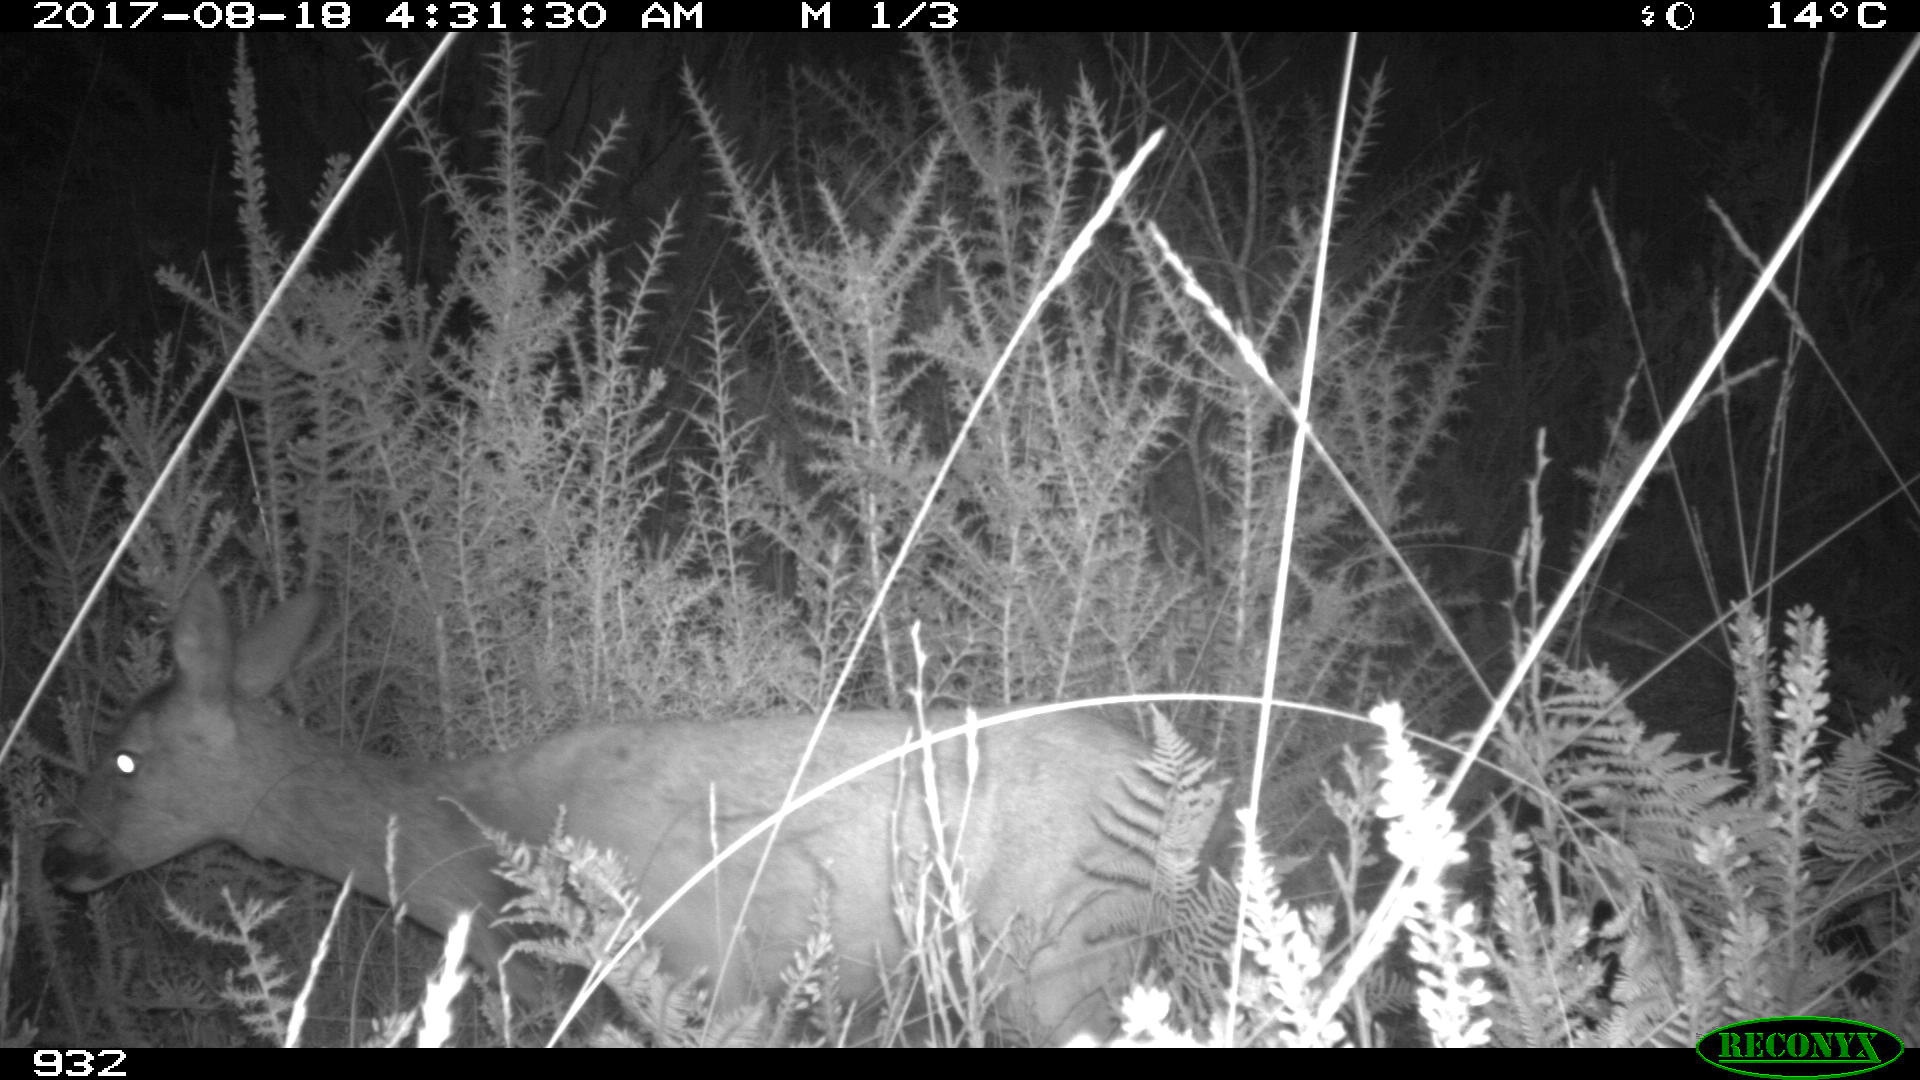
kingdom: Animalia
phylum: Chordata
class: Mammalia
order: Artiodactyla
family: Cervidae
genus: Capreolus
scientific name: Capreolus capreolus
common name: Western roe deer
